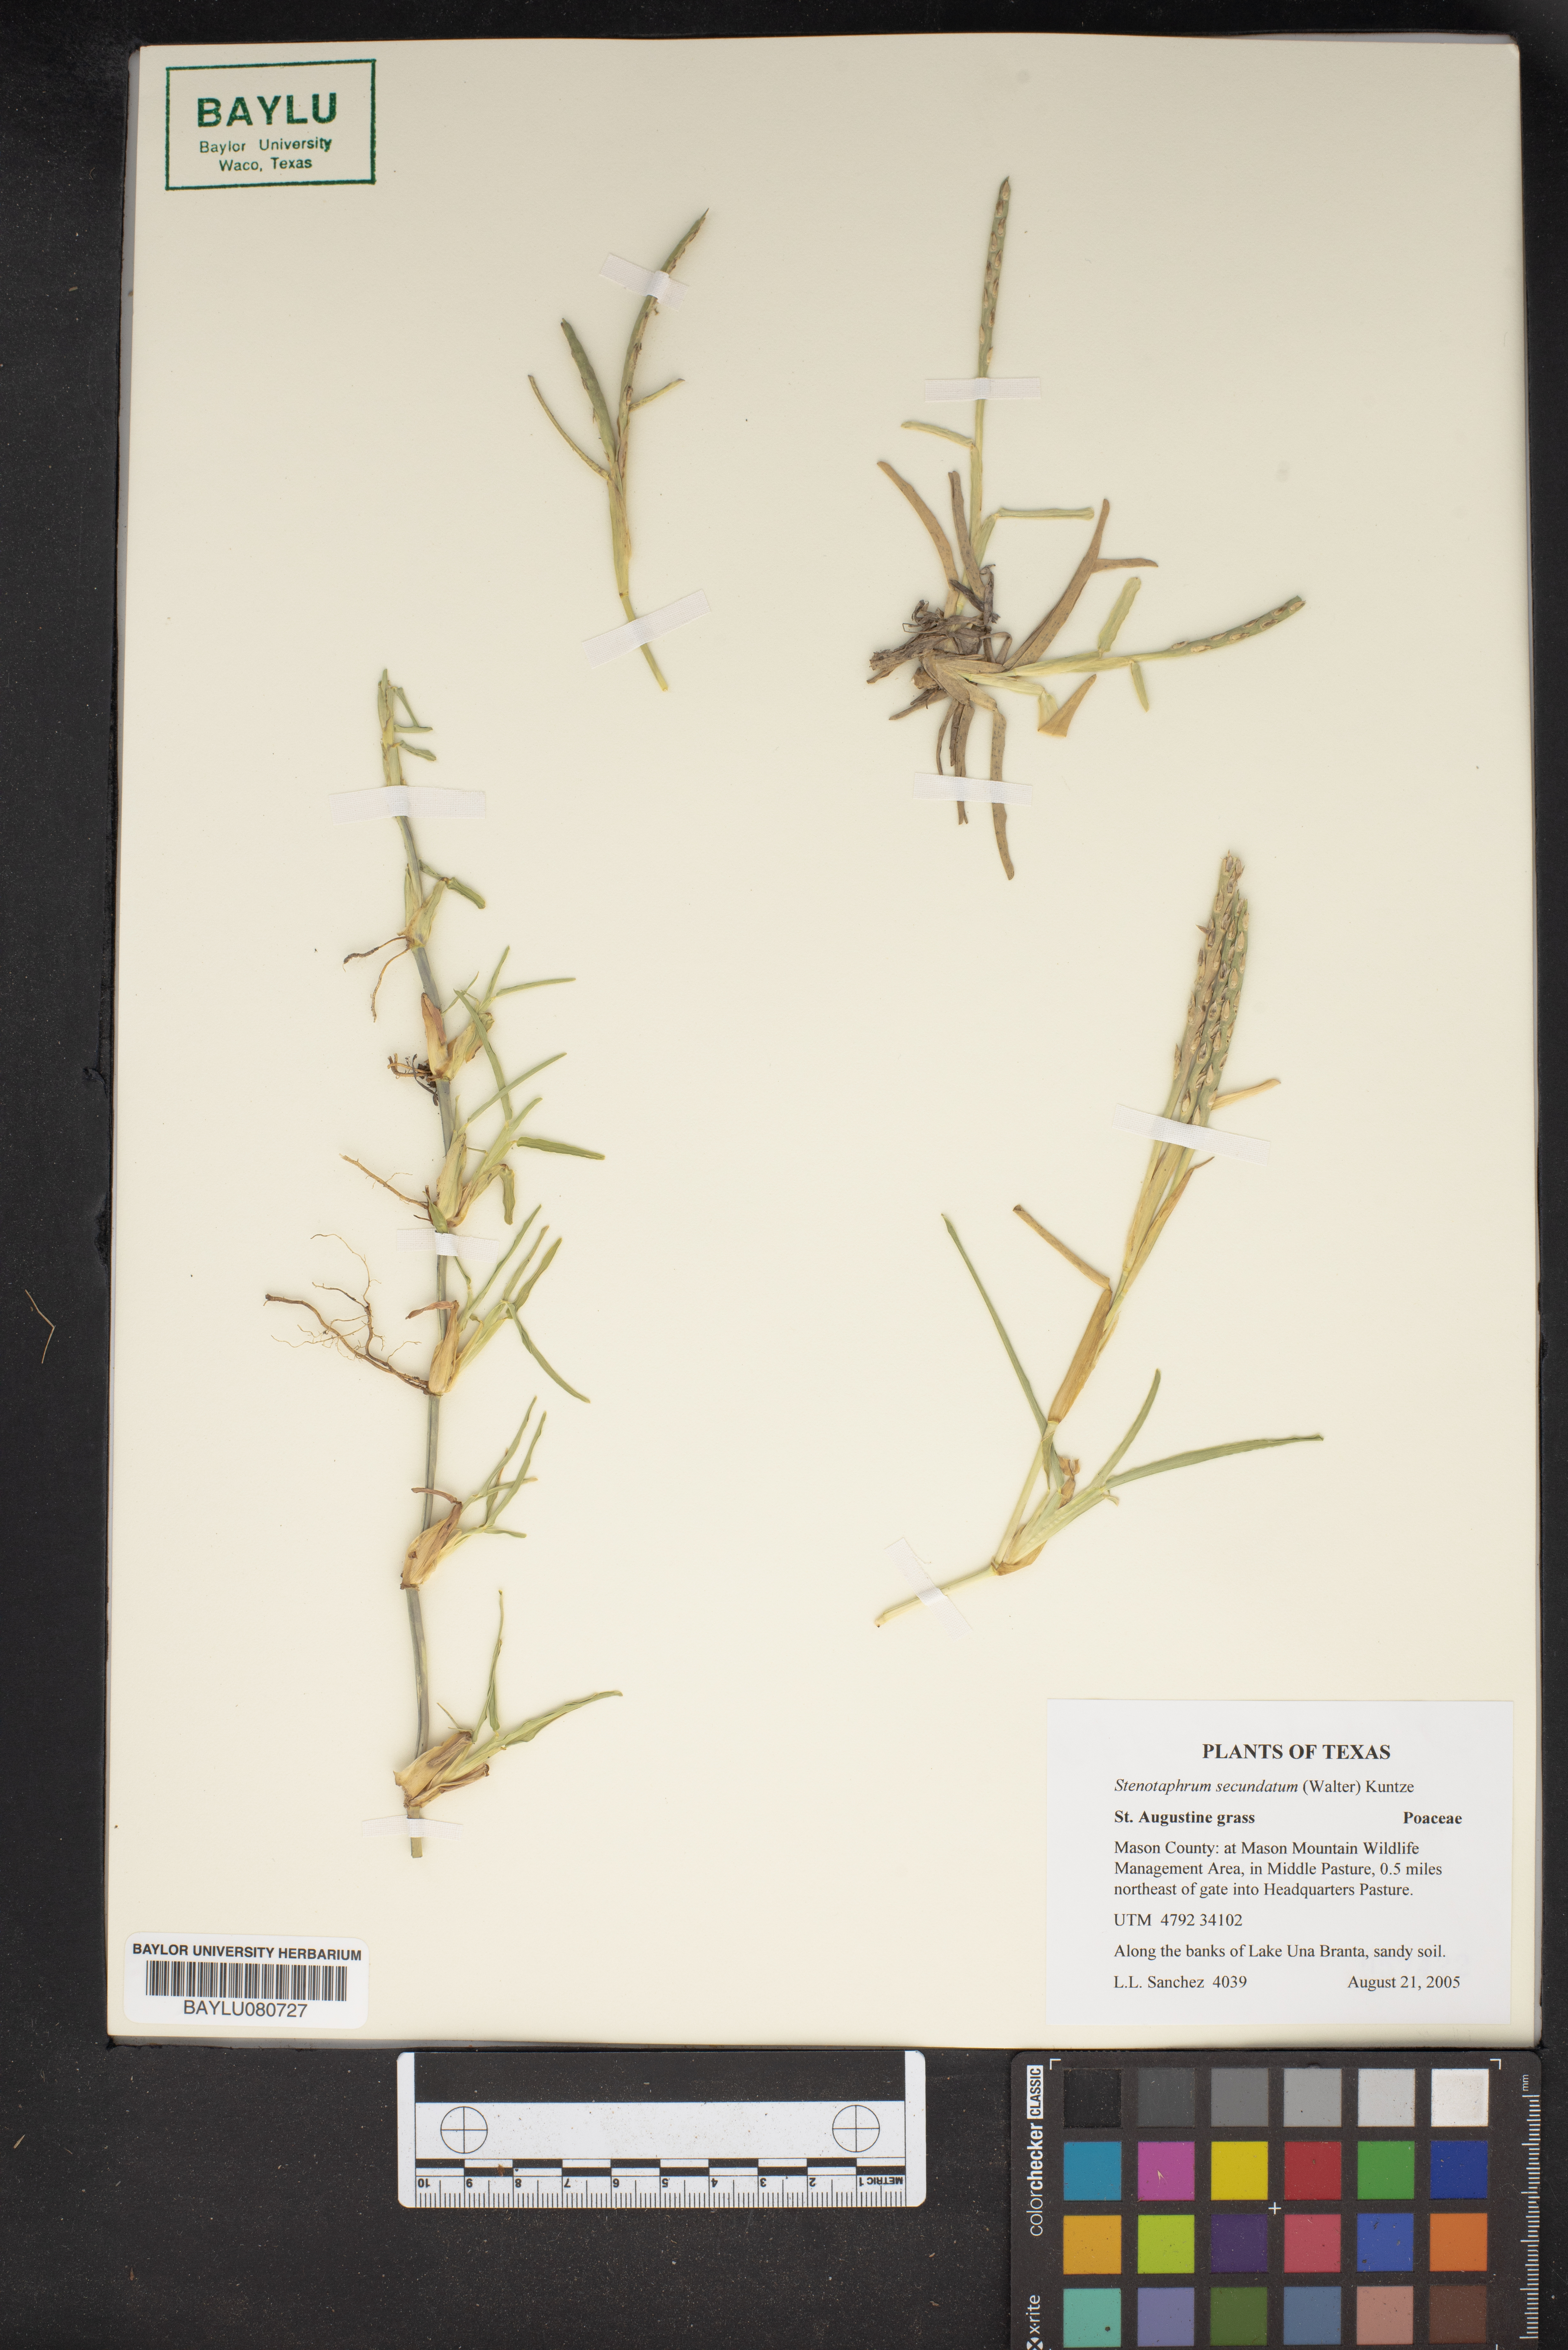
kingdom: Plantae
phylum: Tracheophyta
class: Liliopsida
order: Poales
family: Poaceae
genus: Stenotaphrum
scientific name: Stenotaphrum secundatum
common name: St. augustine grass
